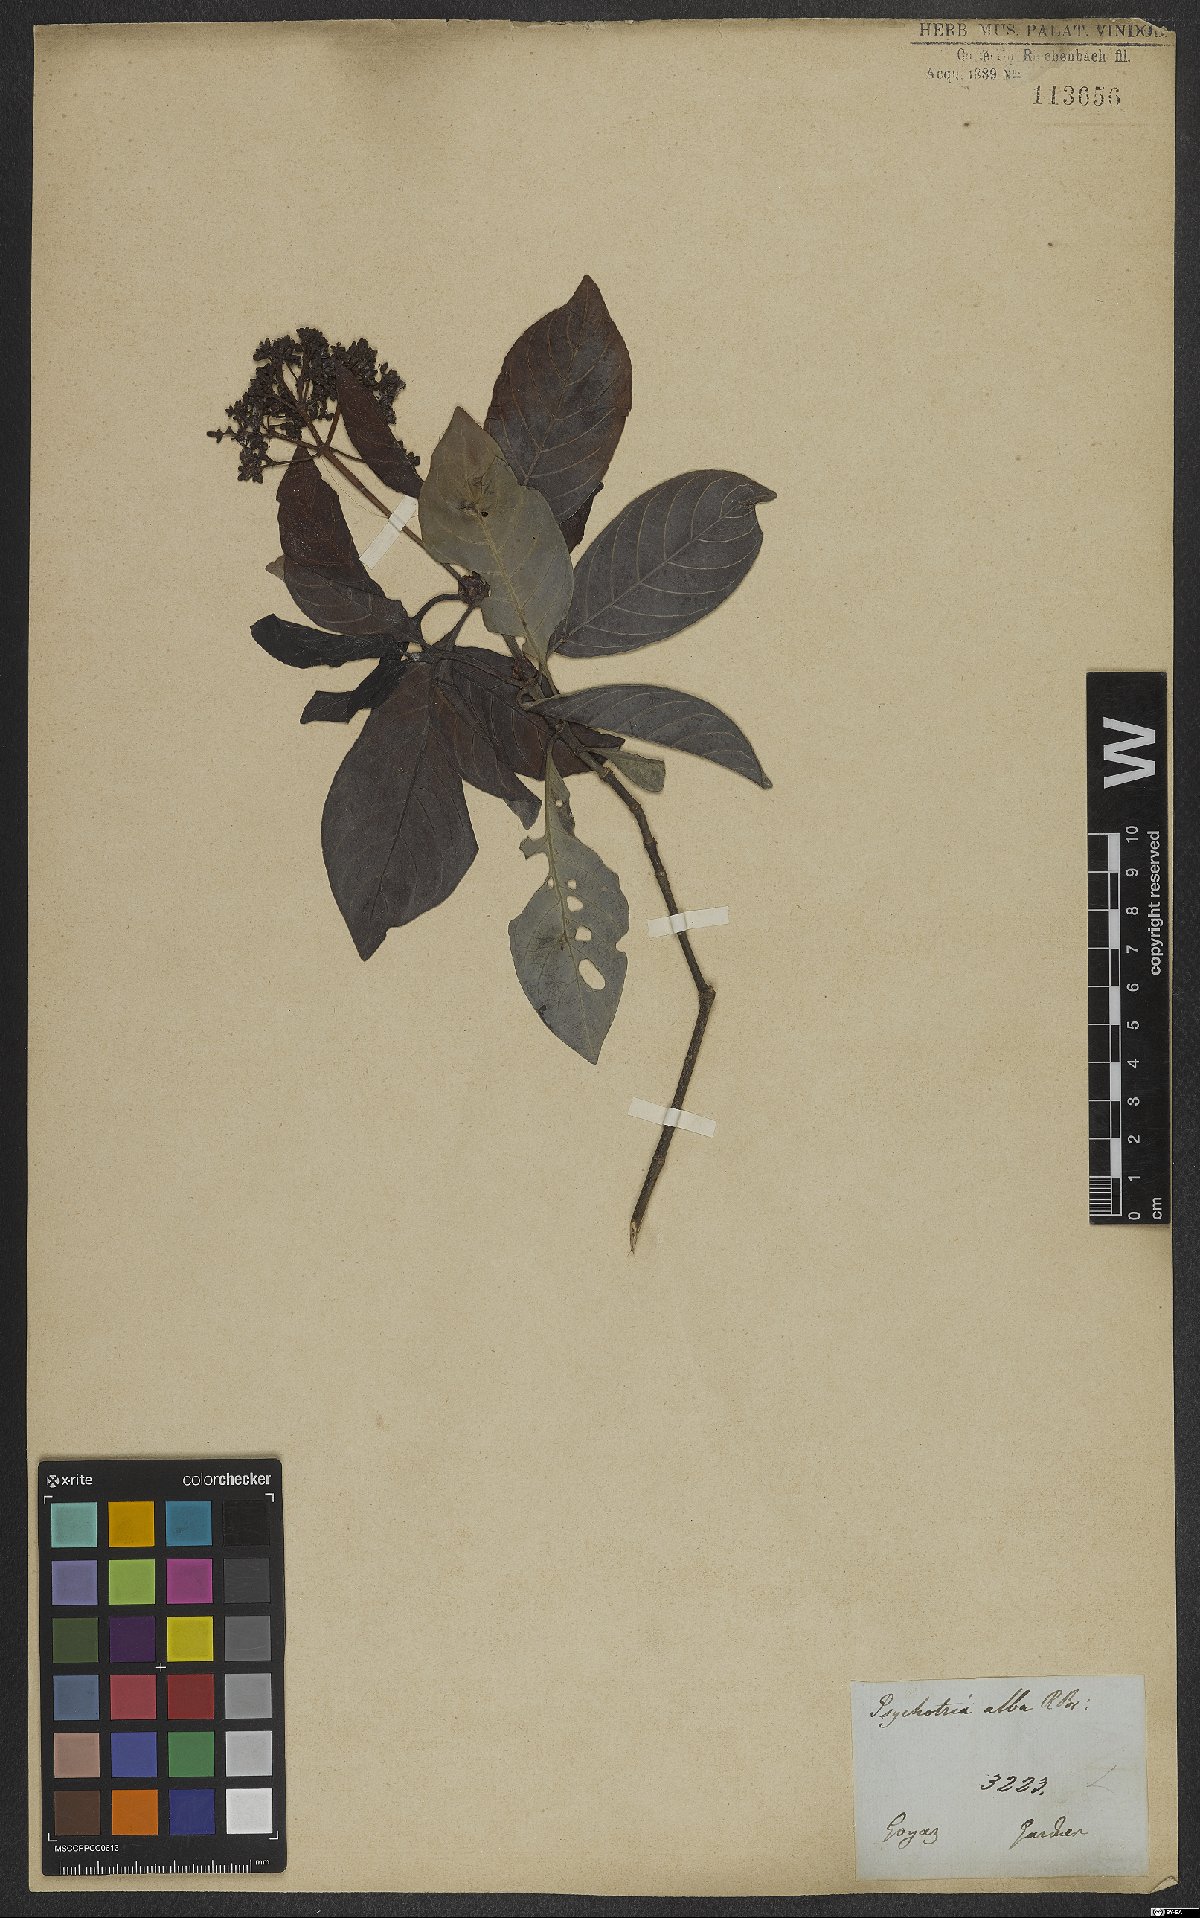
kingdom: Plantae
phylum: Tracheophyta
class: Magnoliopsida
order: Gentianales
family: Rubiaceae
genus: Psychotria
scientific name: Psychotria alba
